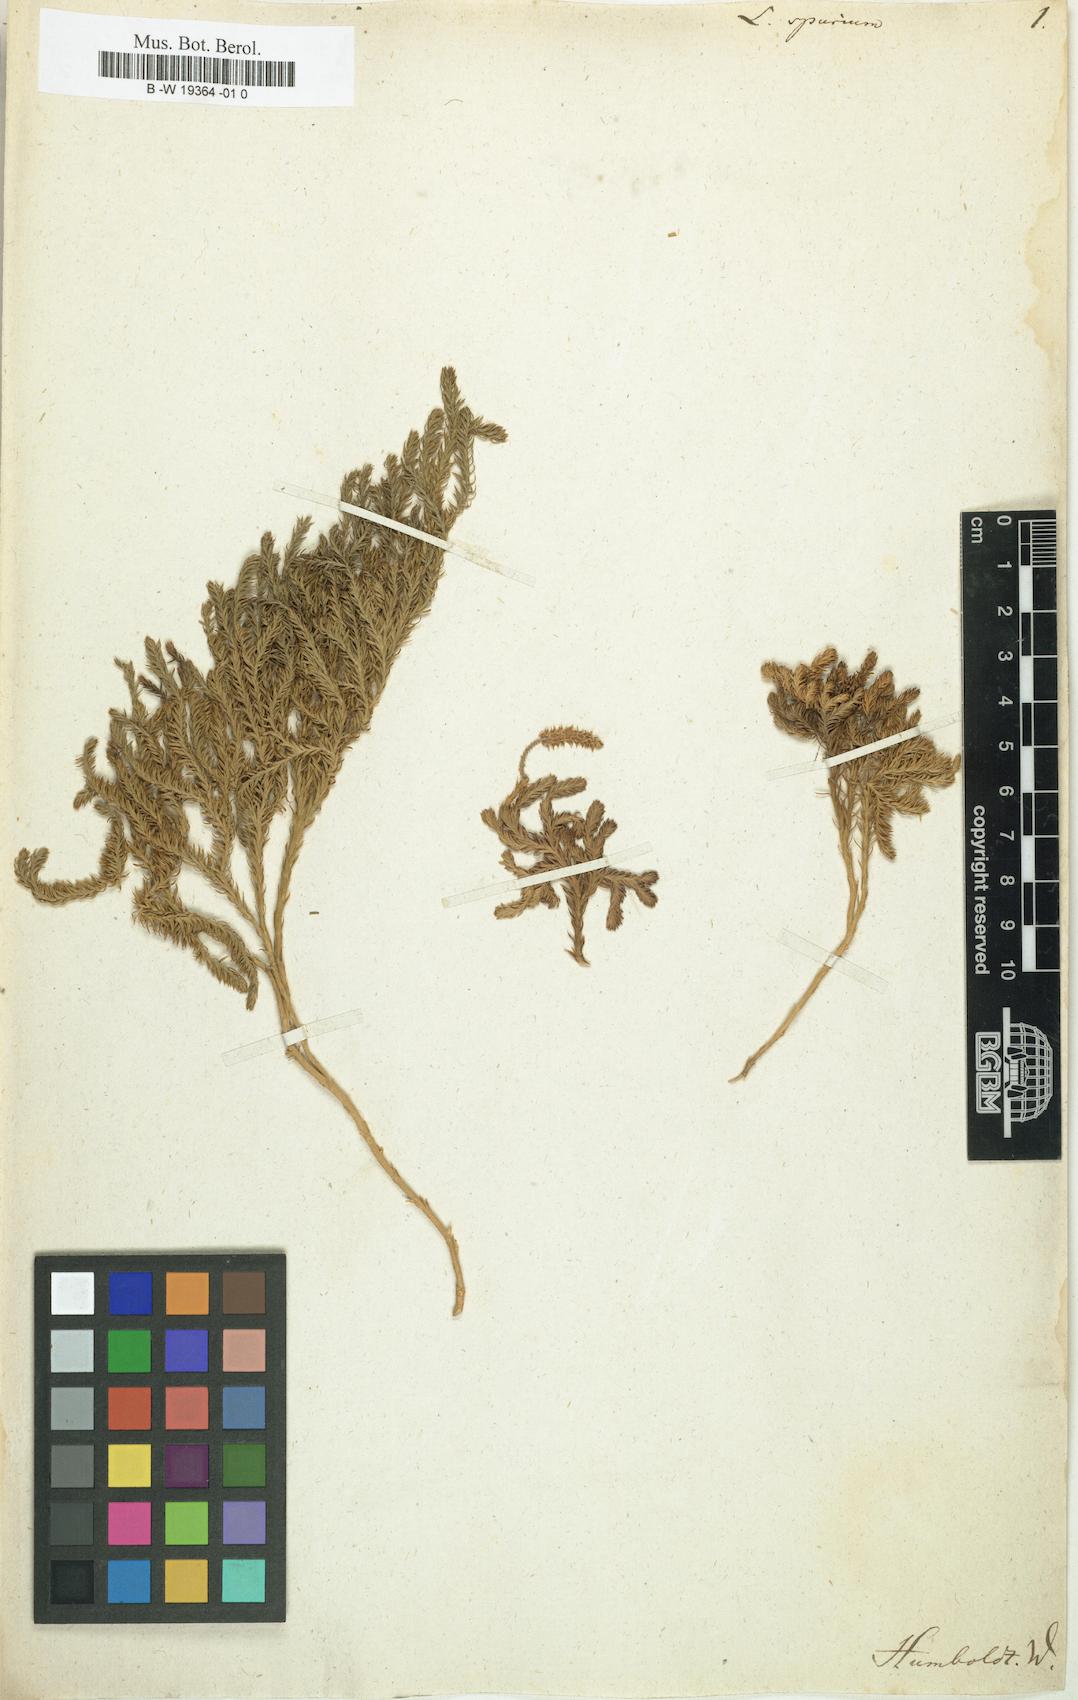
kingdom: Plantae
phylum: Tracheophyta
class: Lycopodiopsida
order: Lycopodiales
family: Lycopodiaceae
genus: Austrolycopodium
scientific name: Austrolycopodium magellanicum
